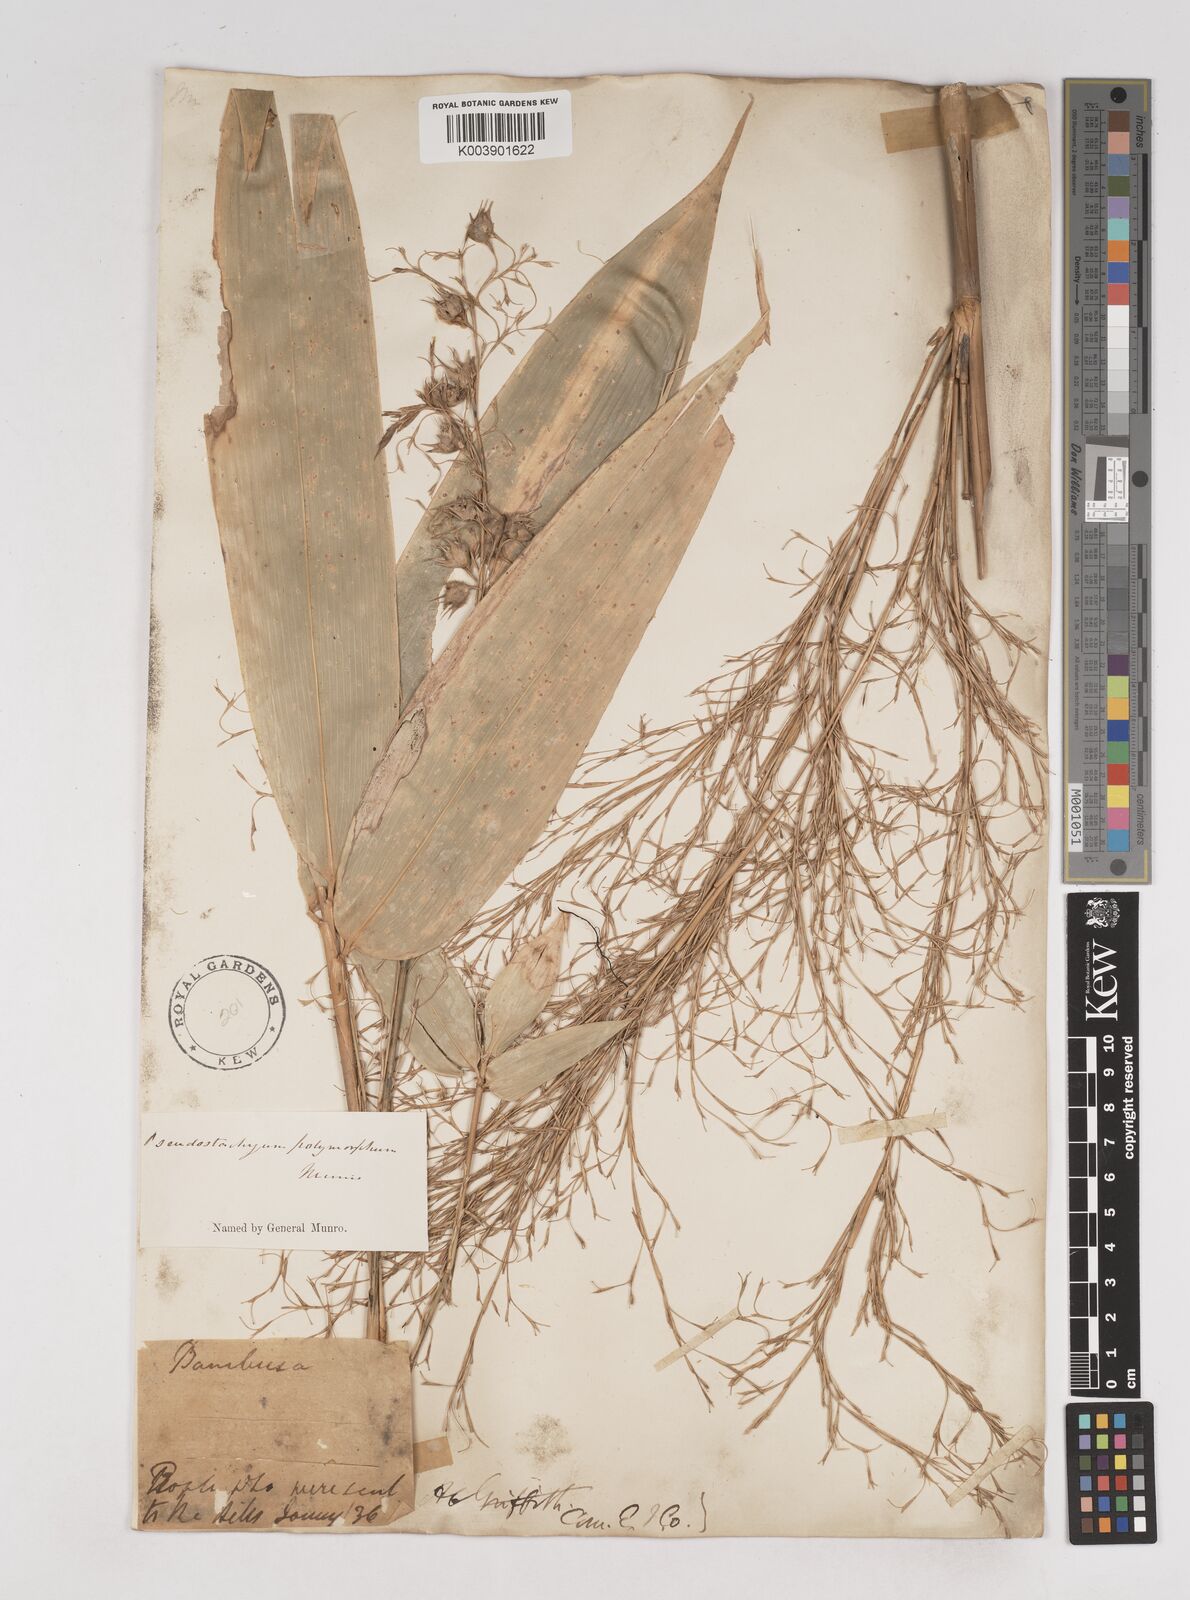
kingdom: Plantae
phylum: Tracheophyta
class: Liliopsida
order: Poales
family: Poaceae
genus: Pseudostachyum
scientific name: Pseudostachyum polymorphum
